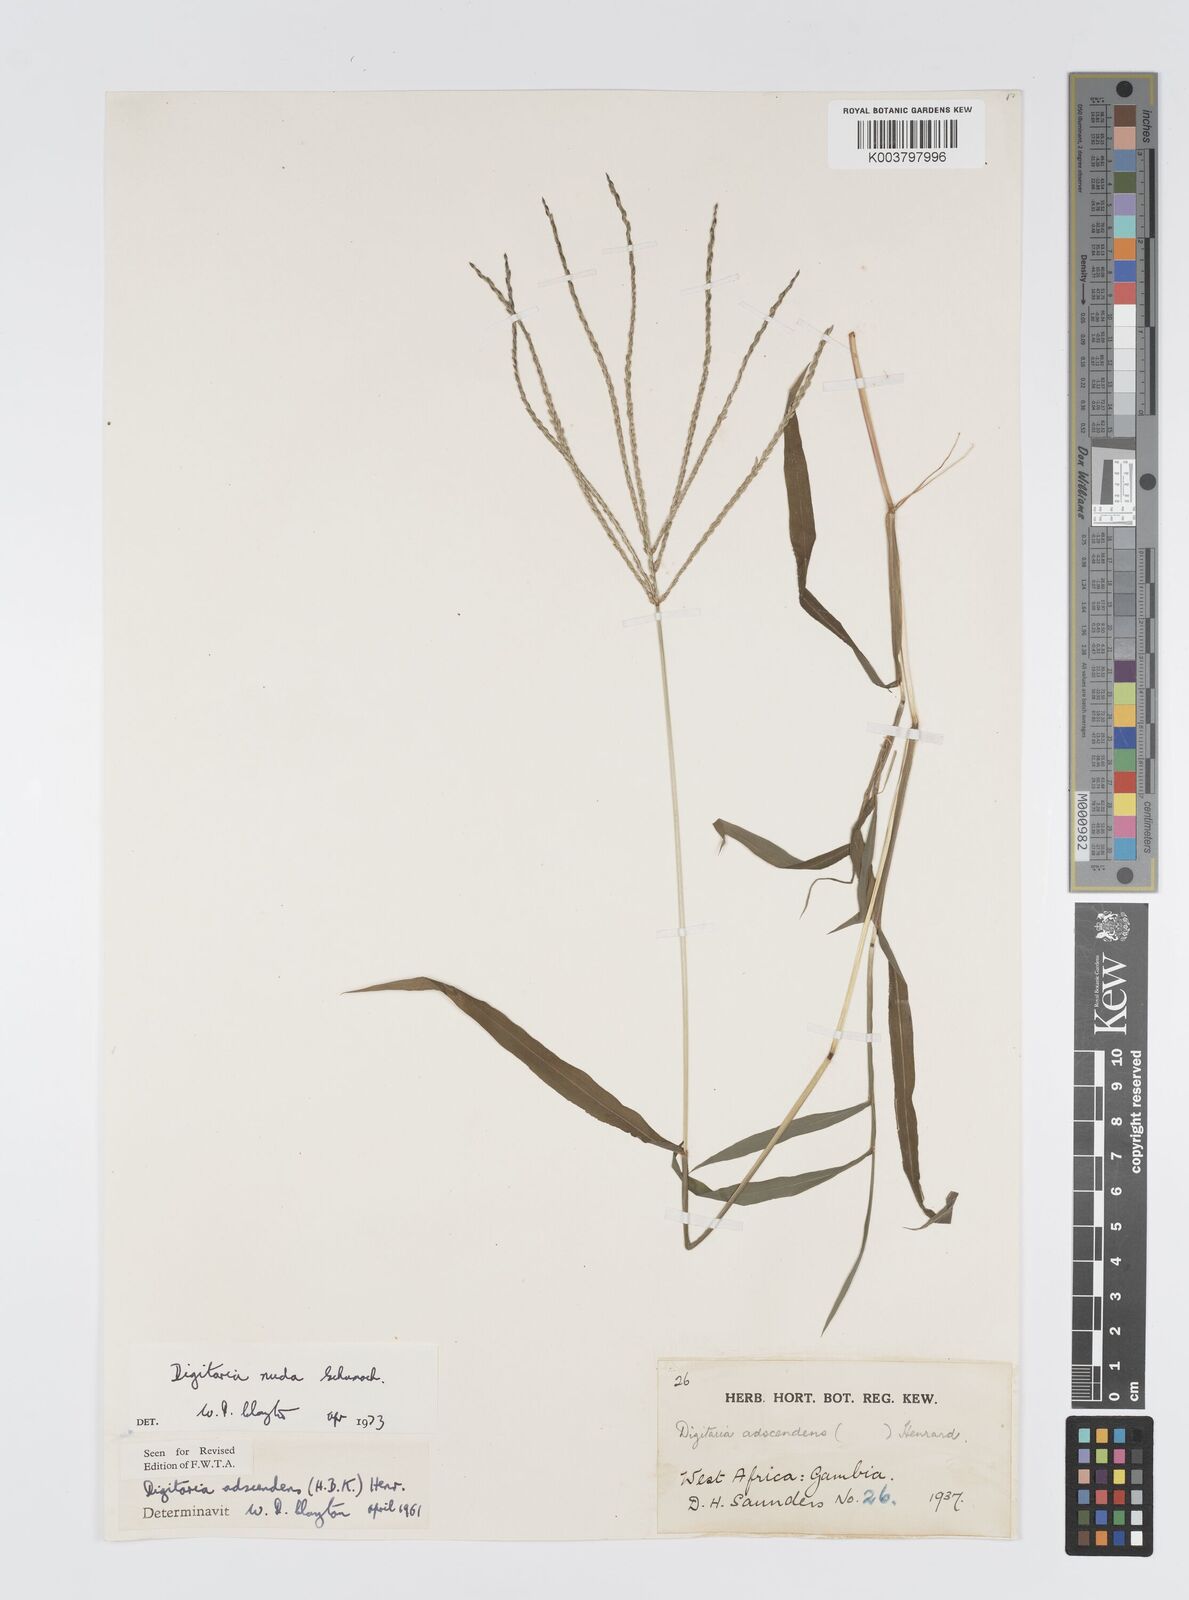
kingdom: Plantae
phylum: Tracheophyta
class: Liliopsida
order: Poales
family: Poaceae
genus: Digitaria
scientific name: Digitaria nuda
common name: Naked crabgrass
